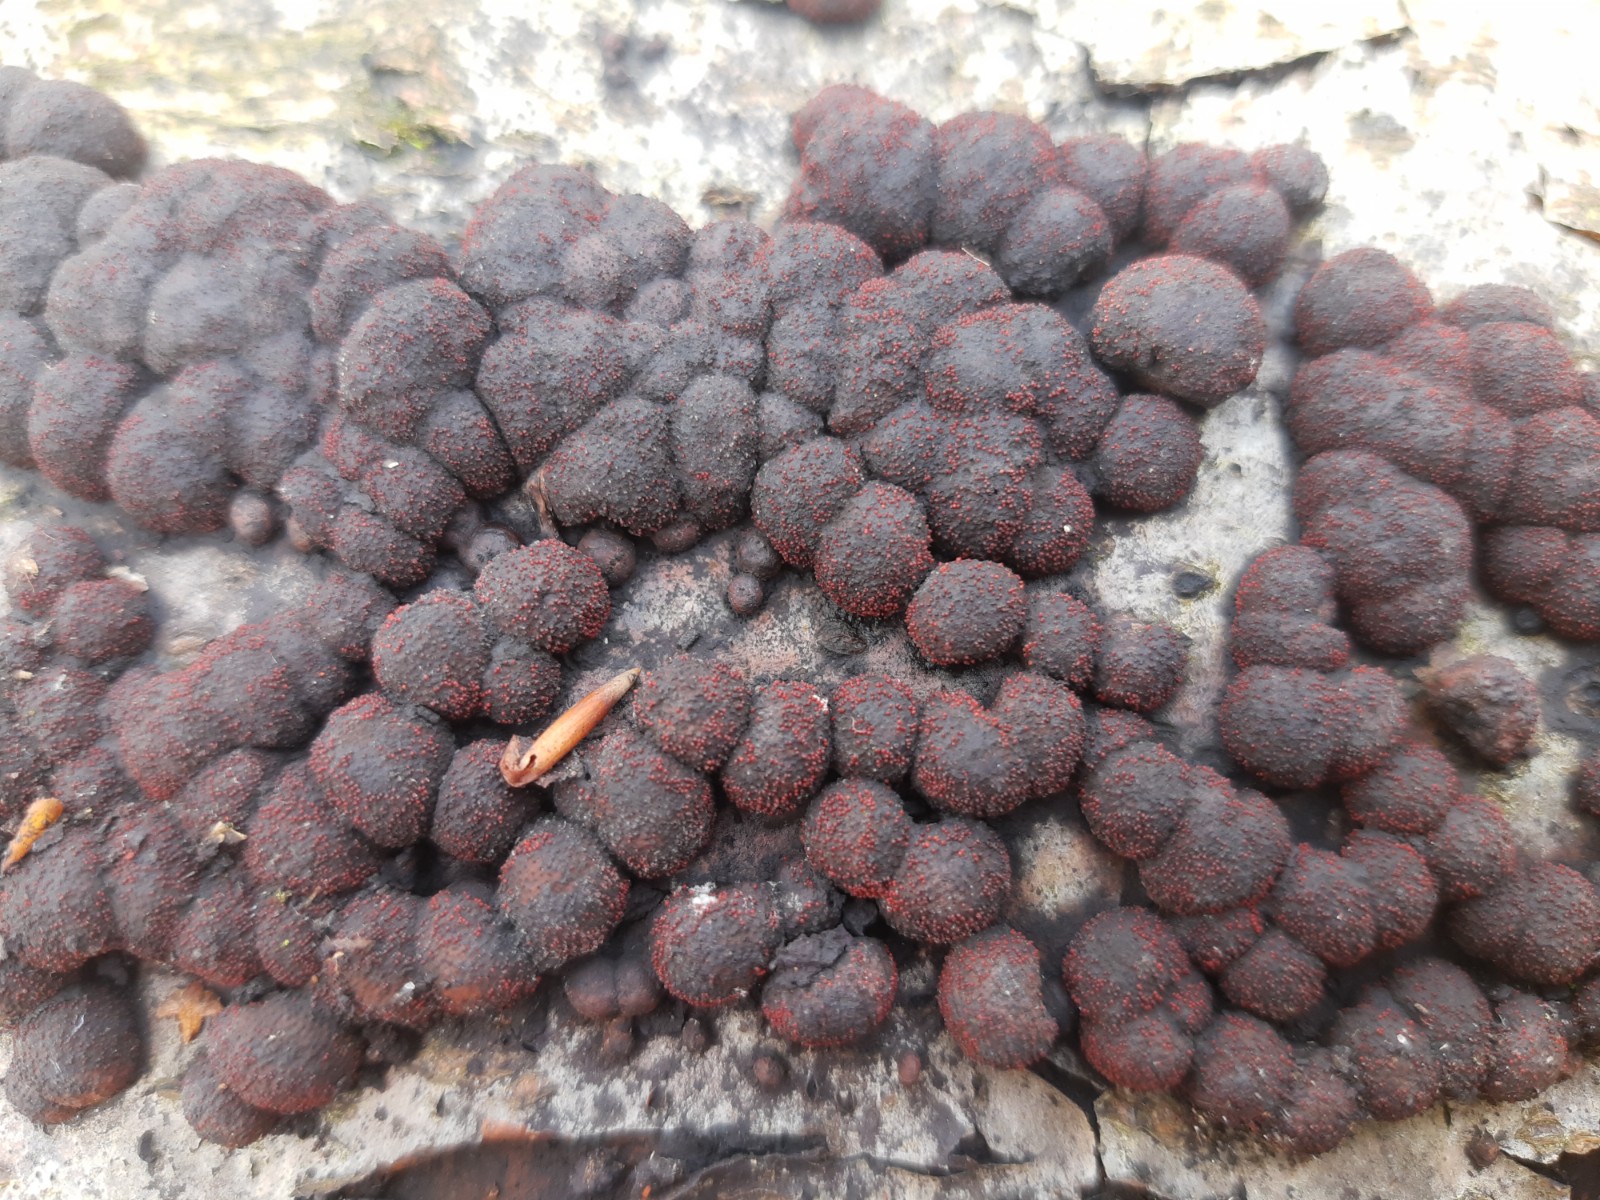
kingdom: Fungi
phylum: Ascomycota
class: Sordariomycetes
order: Hypocreales
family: Nectriaceae
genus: Cosmospora
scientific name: Cosmospora arxii
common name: kuljordbær-cinnobersvamp
